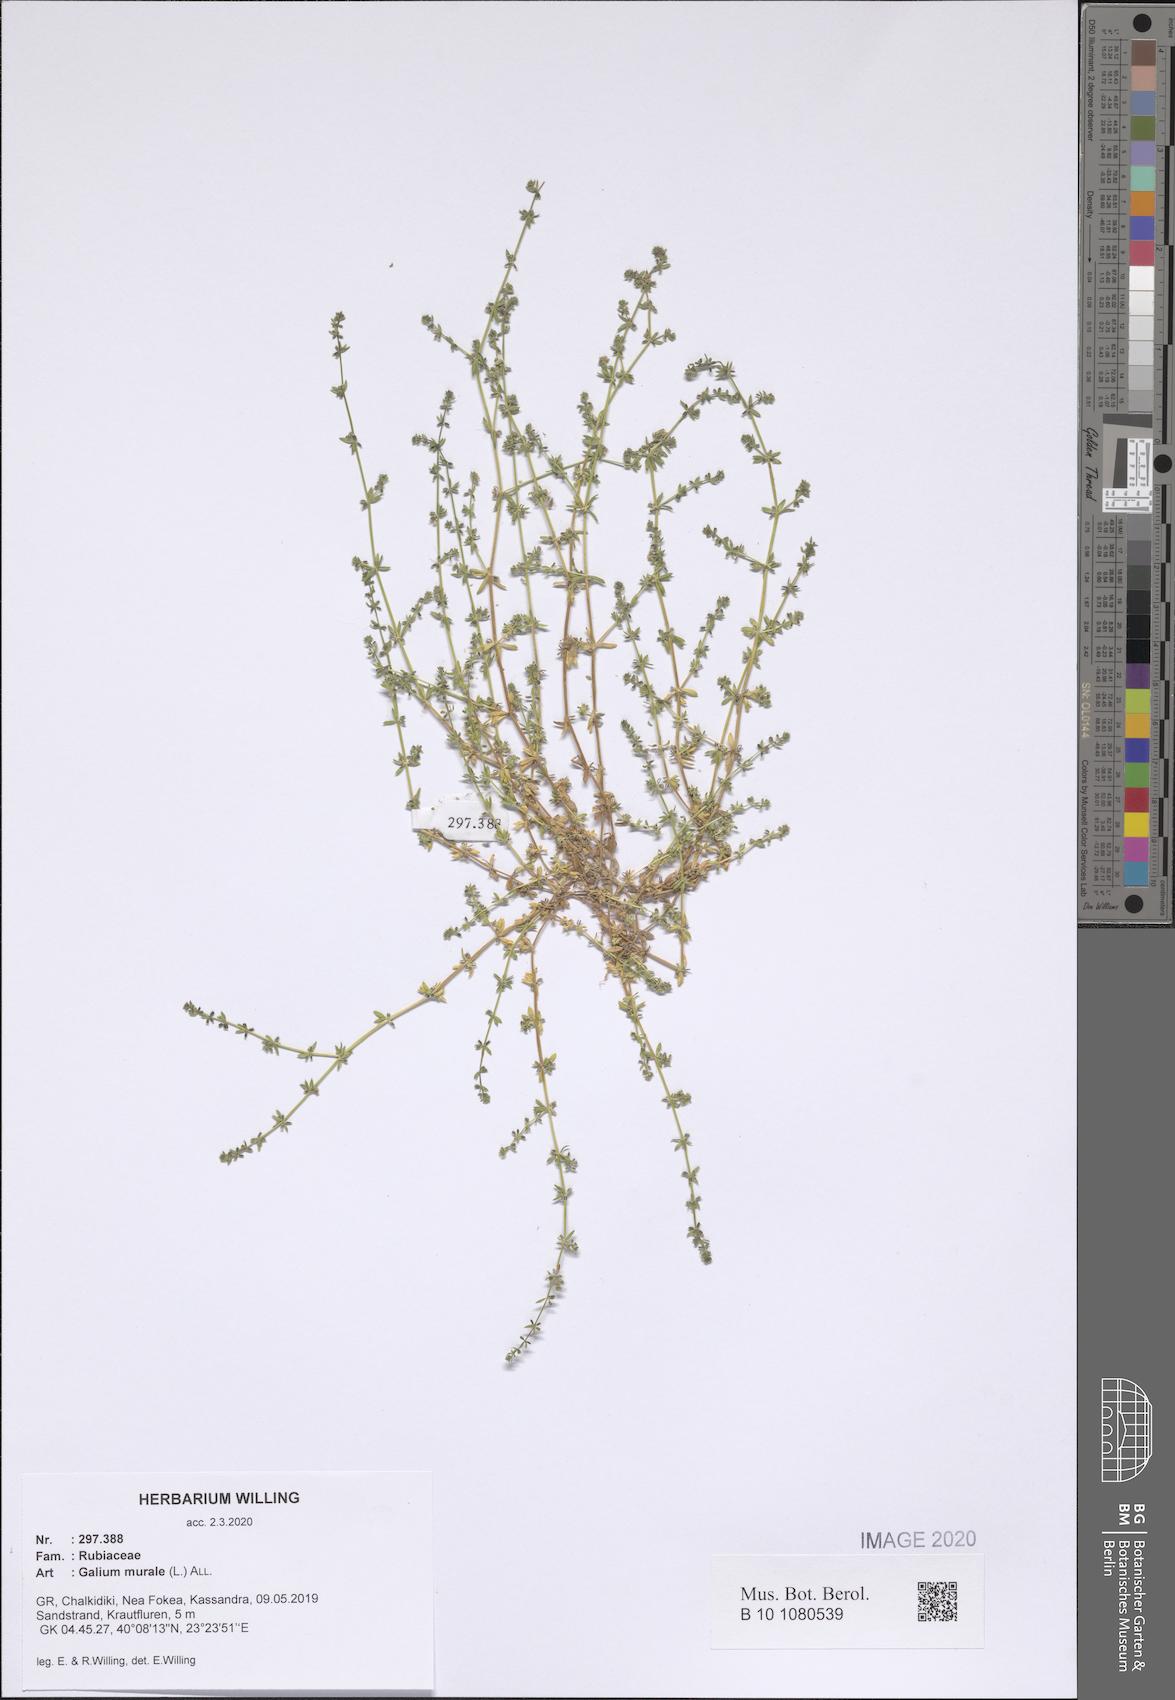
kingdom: Plantae
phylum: Tracheophyta
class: Magnoliopsida
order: Gentianales
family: Rubiaceae
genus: Galium
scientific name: Galium murale
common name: Yellow wall bedstraw
